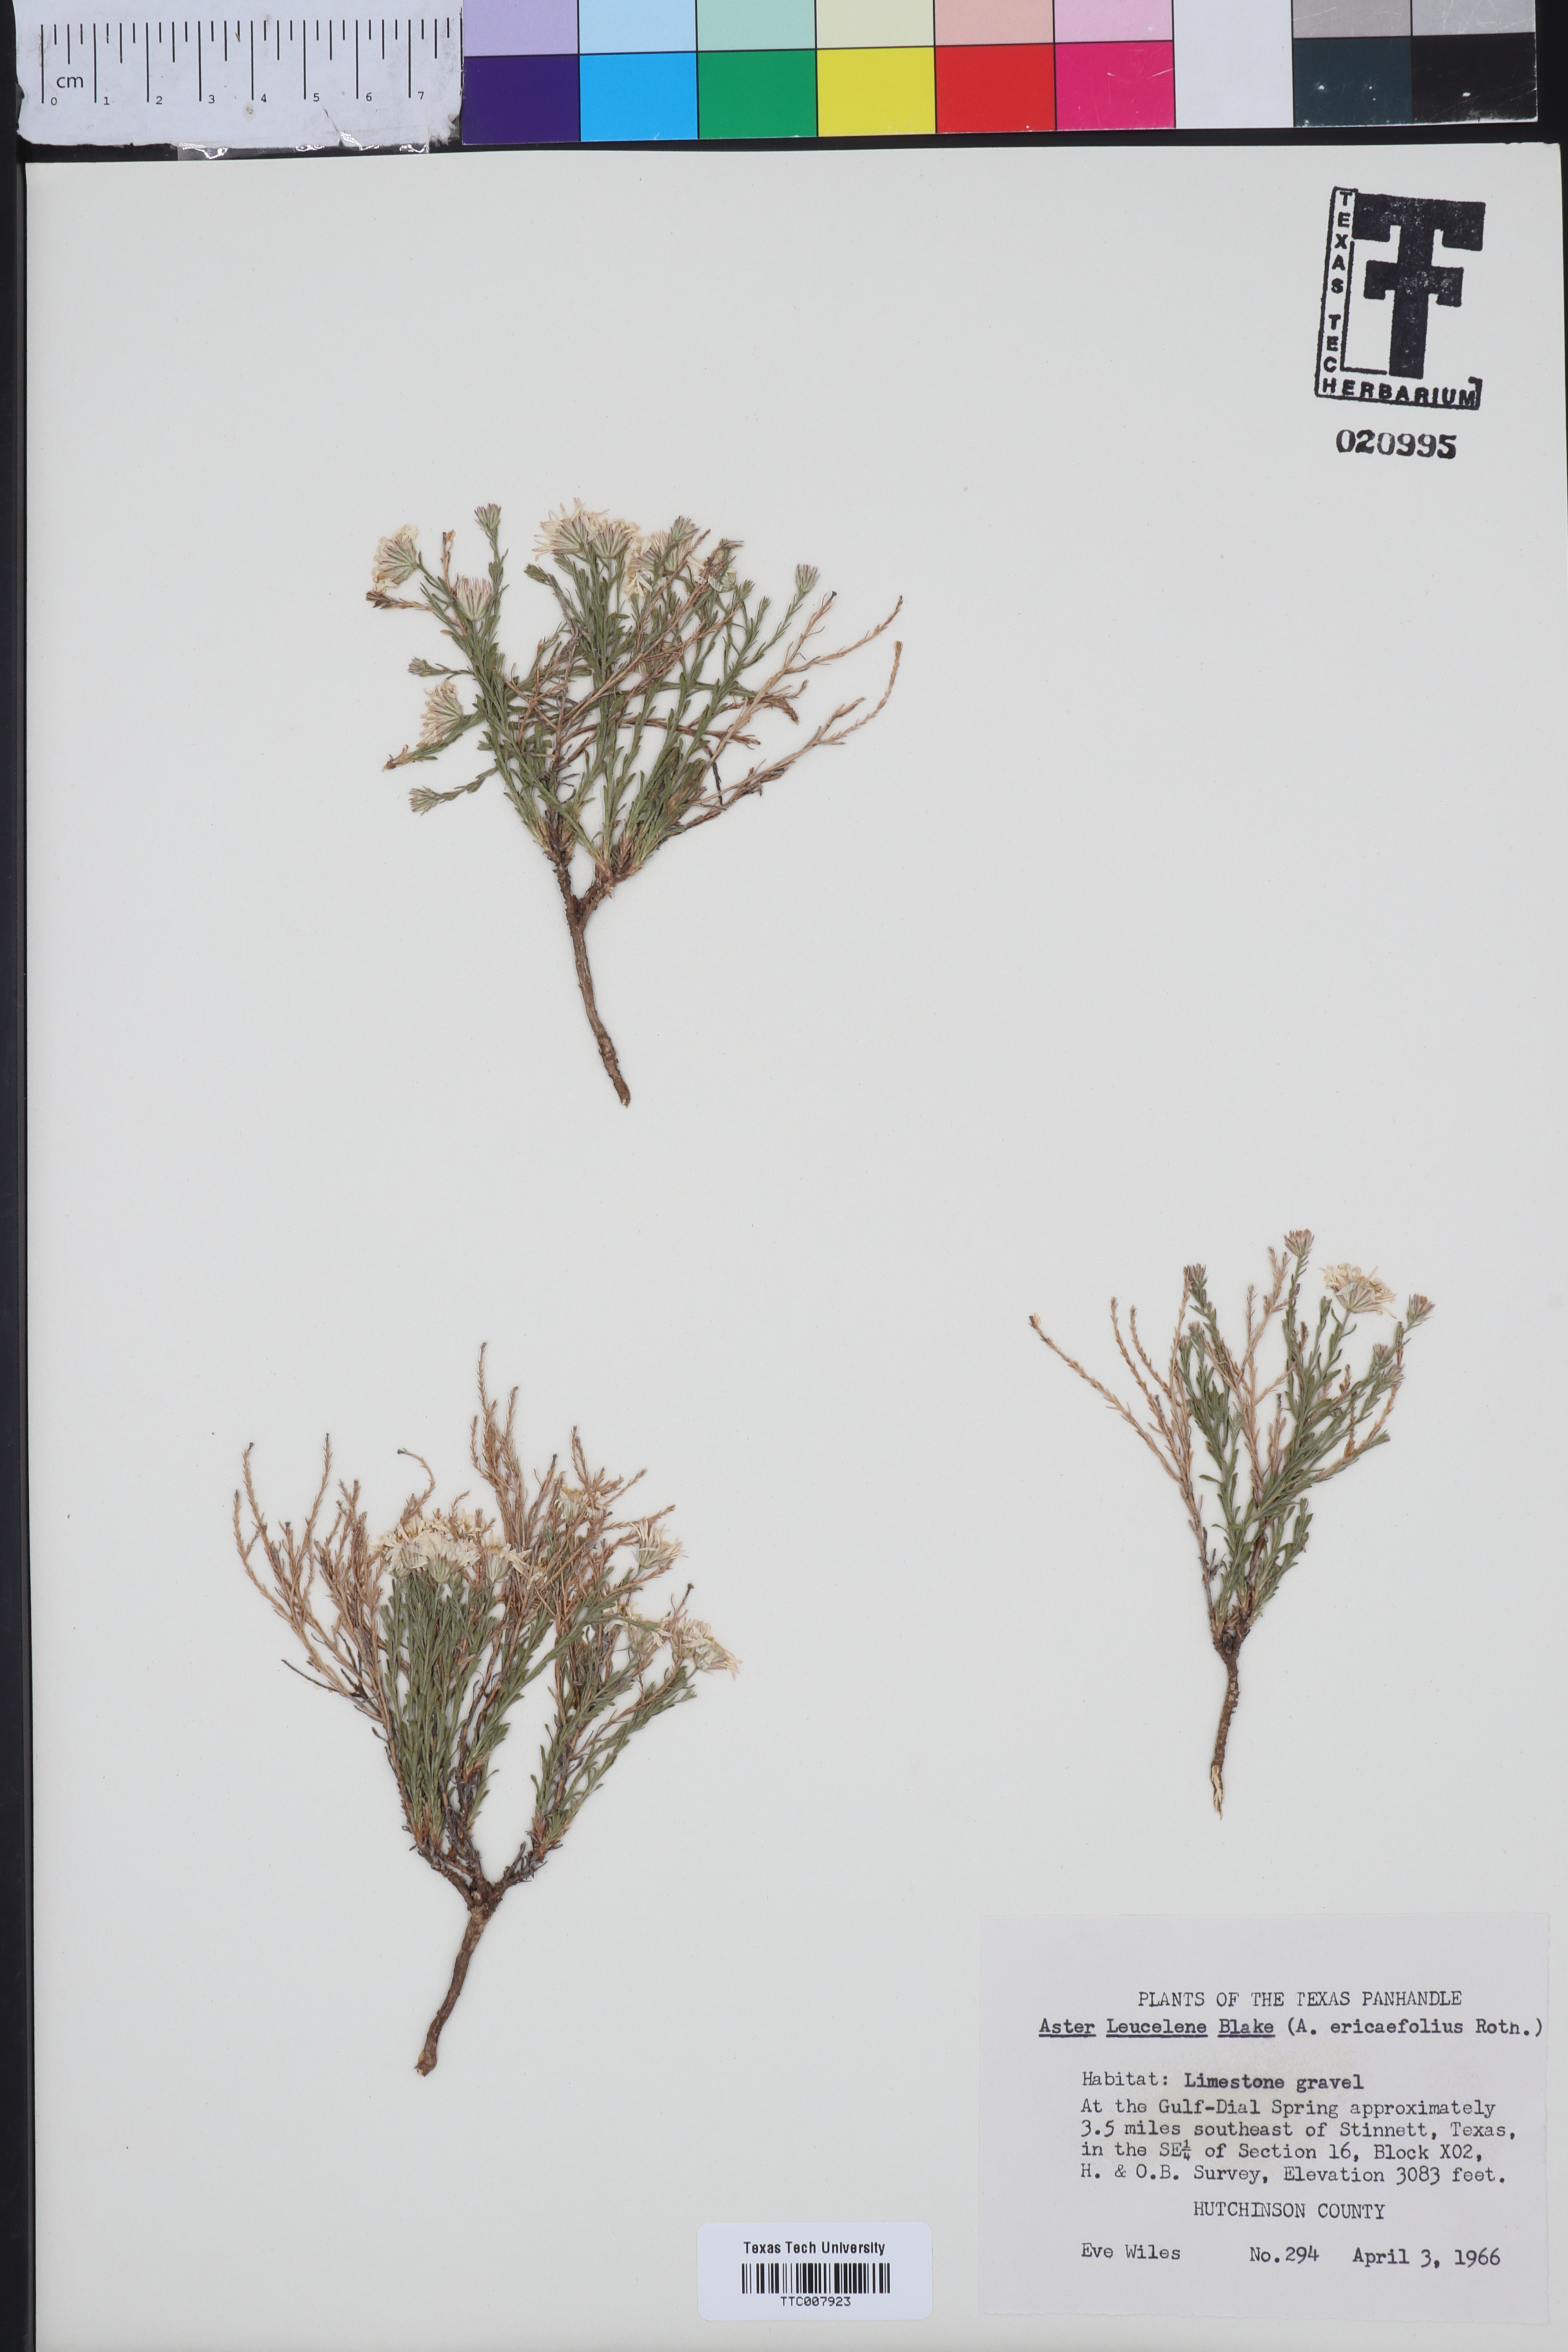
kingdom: Plantae
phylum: Tracheophyta
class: Magnoliopsida
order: Asterales
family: Asteraceae
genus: Chaetopappa
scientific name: Chaetopappa ericoides
